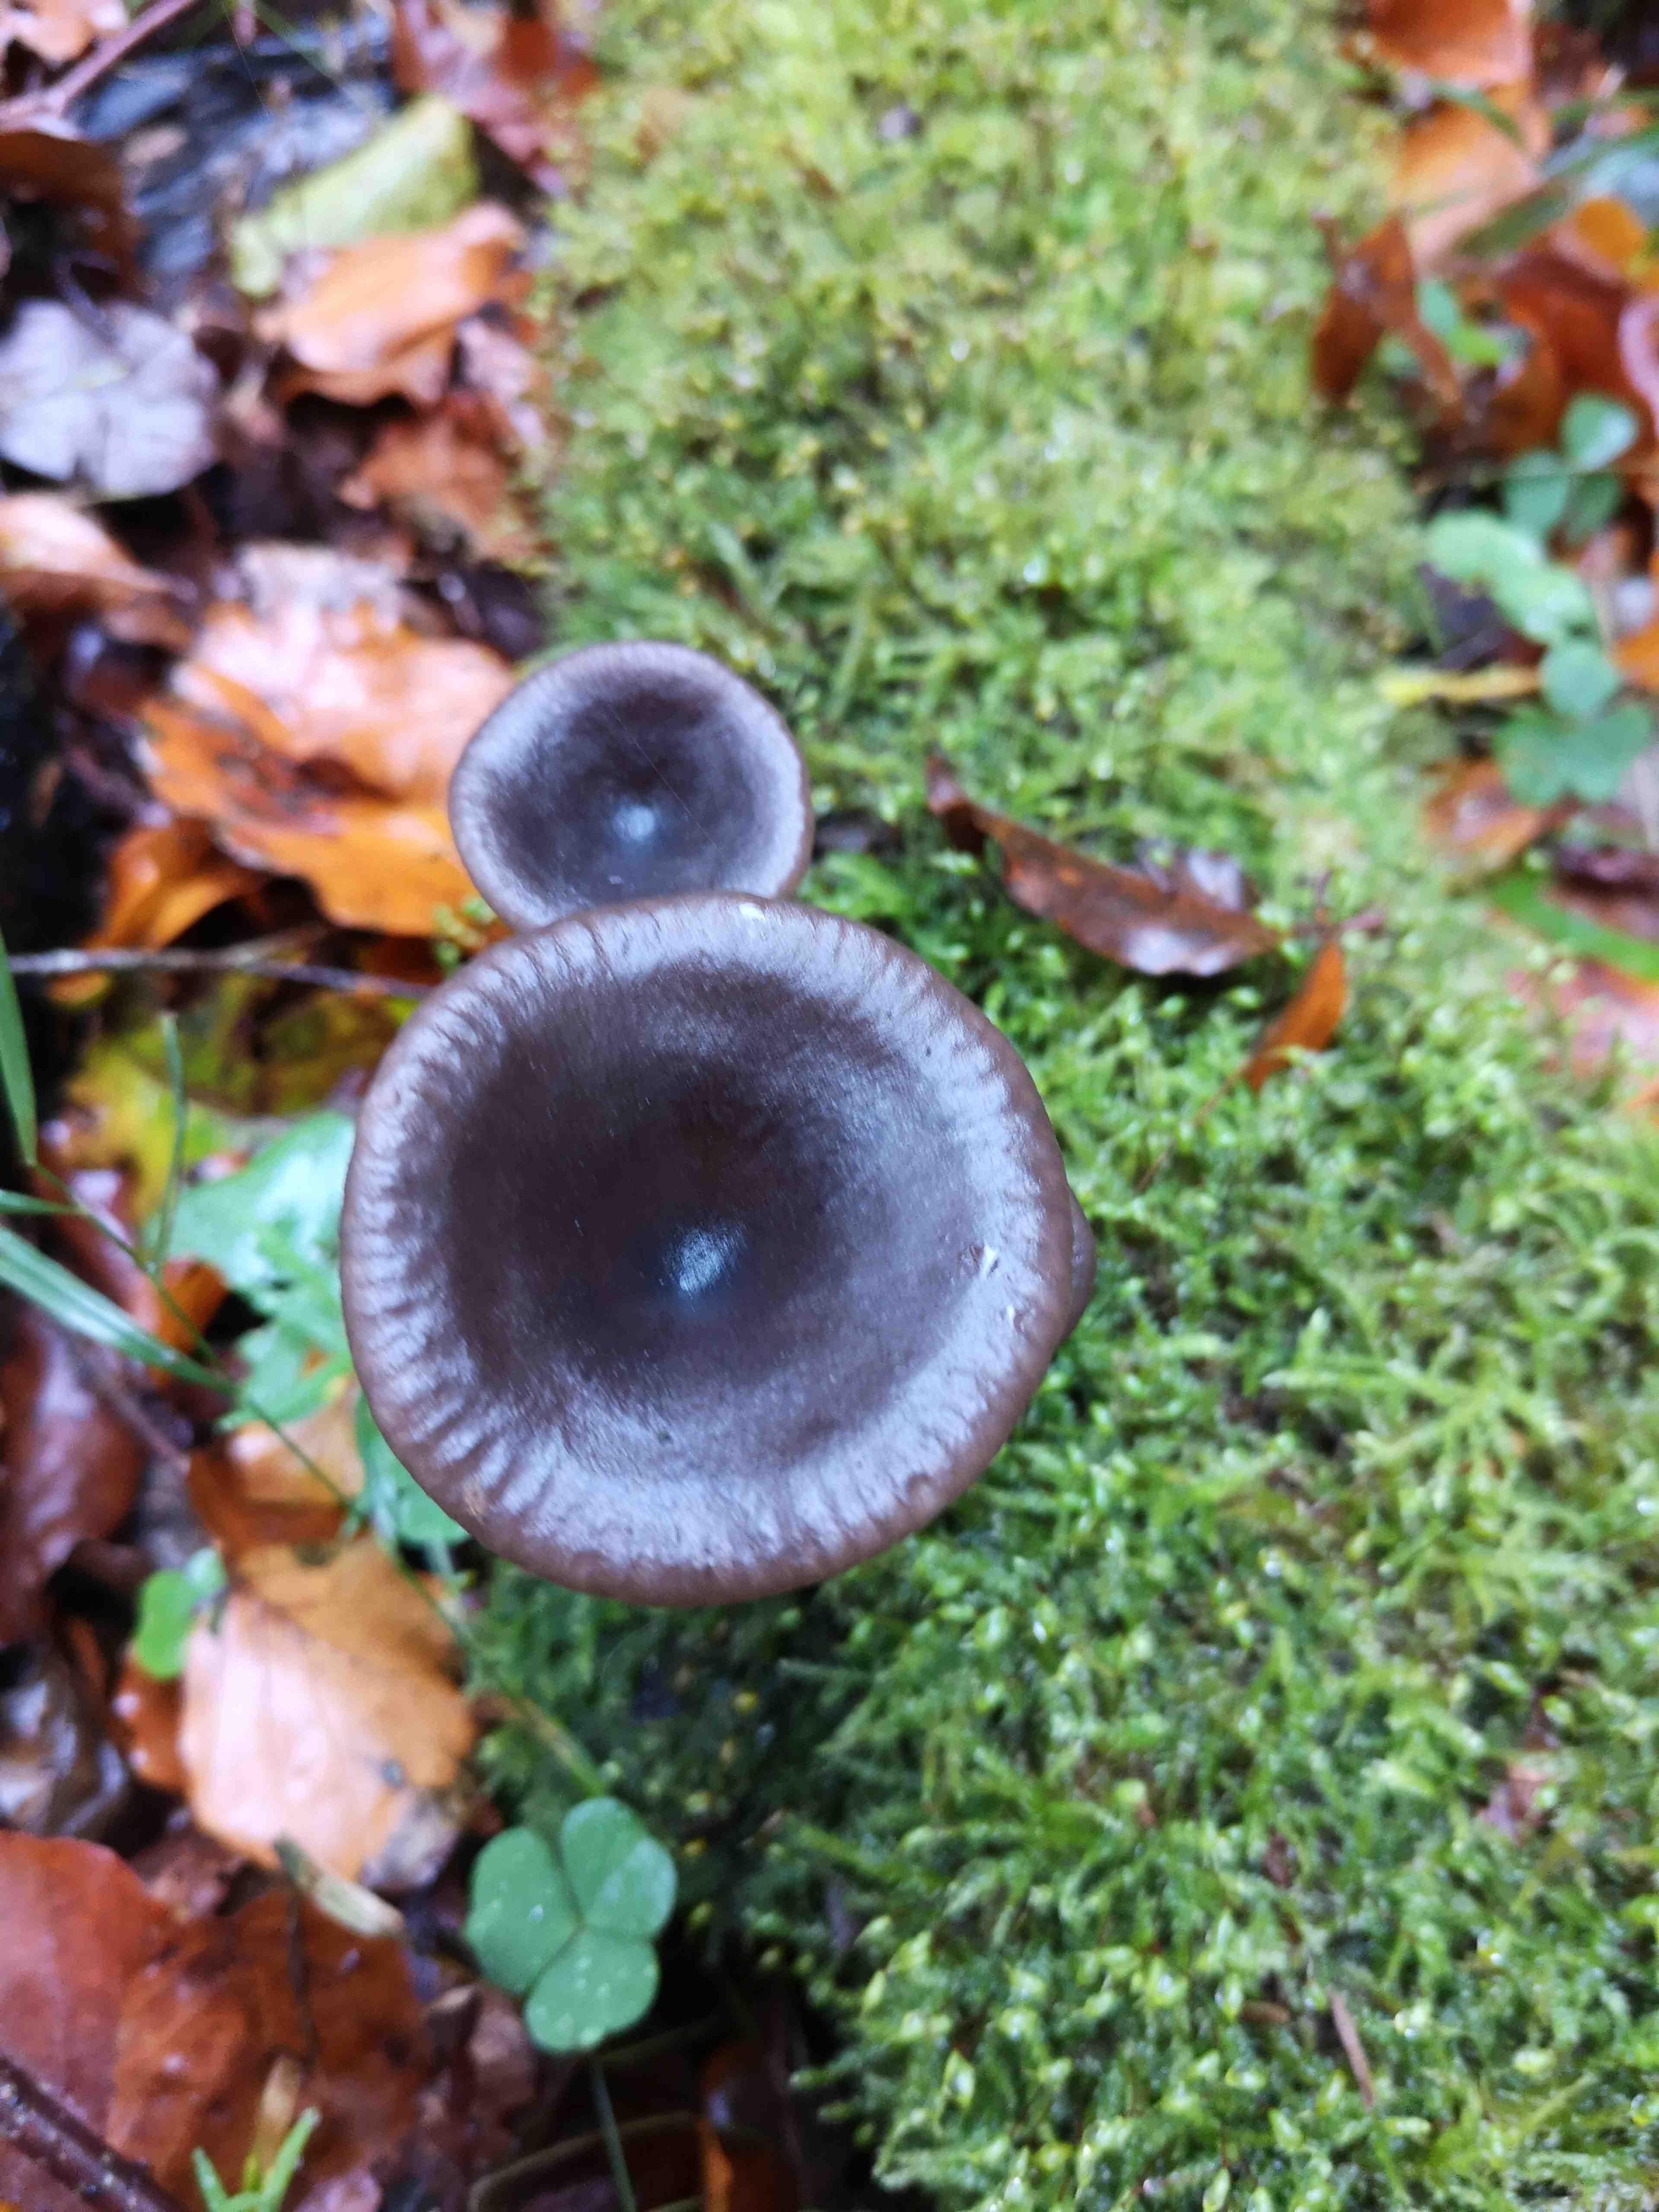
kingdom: Fungi
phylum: Basidiomycota
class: Agaricomycetes
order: Agaricales
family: Pseudoclitocybaceae
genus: Pseudoclitocybe
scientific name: Pseudoclitocybe cyathiformis
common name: almindelig bægertragthat
